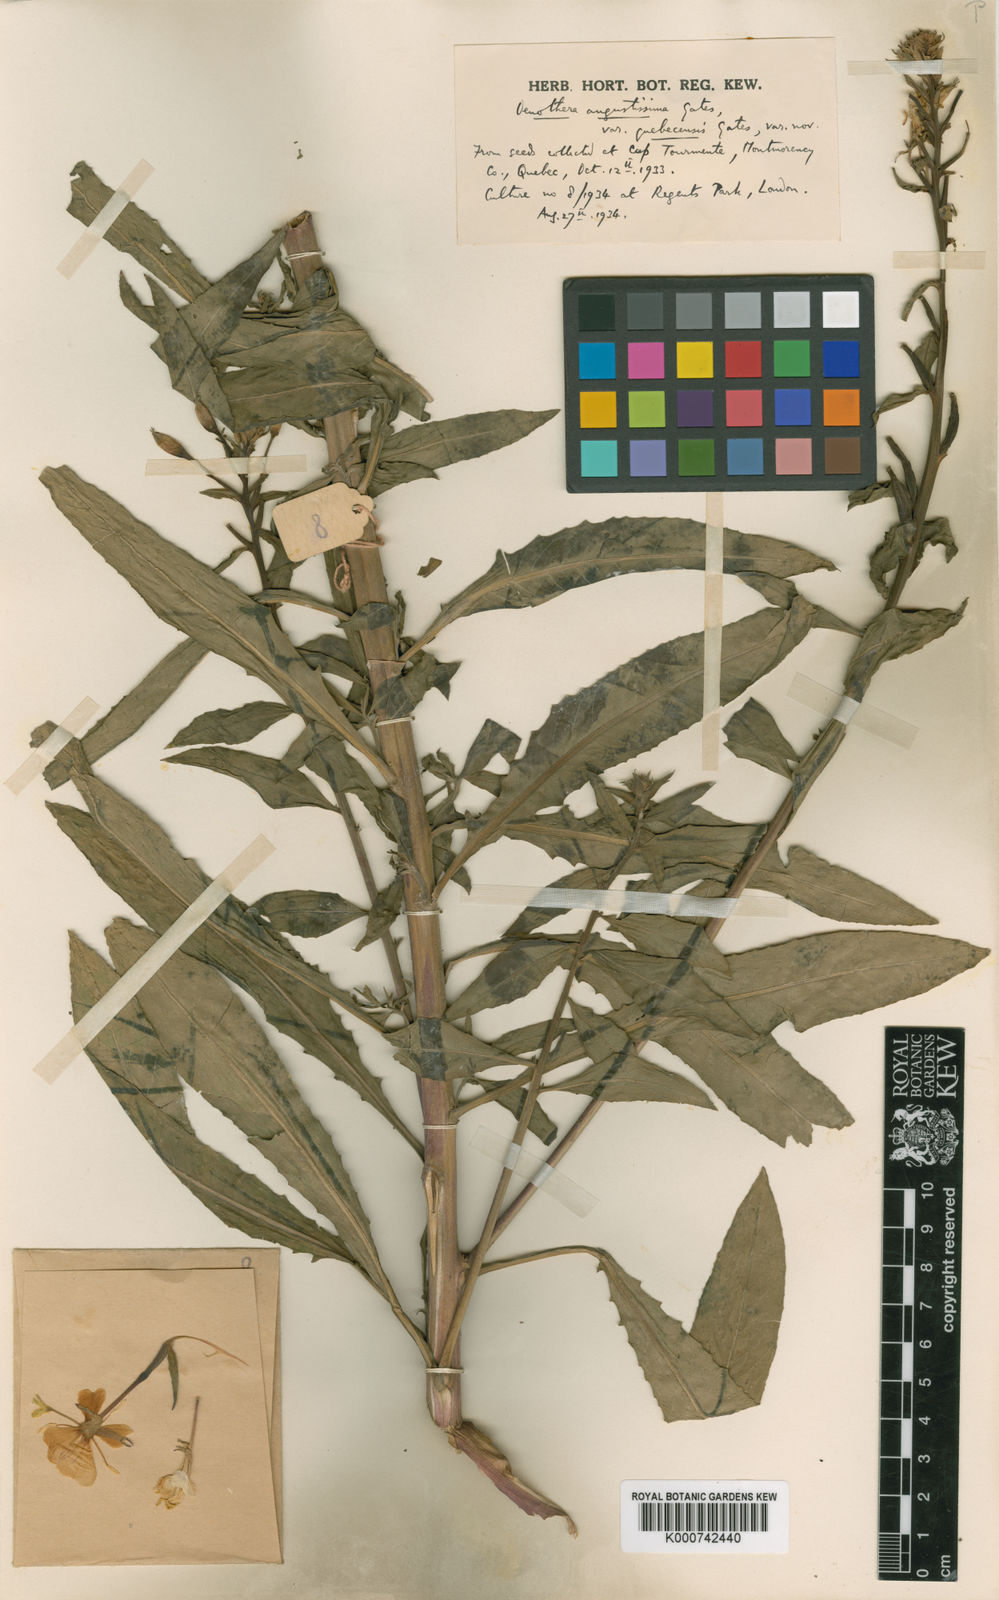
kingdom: Plantae
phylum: Tracheophyta
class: Magnoliopsida
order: Myrtales
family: Onagraceae
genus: Oenothera
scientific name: Oenothera parviflora
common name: Least evening-primrose
